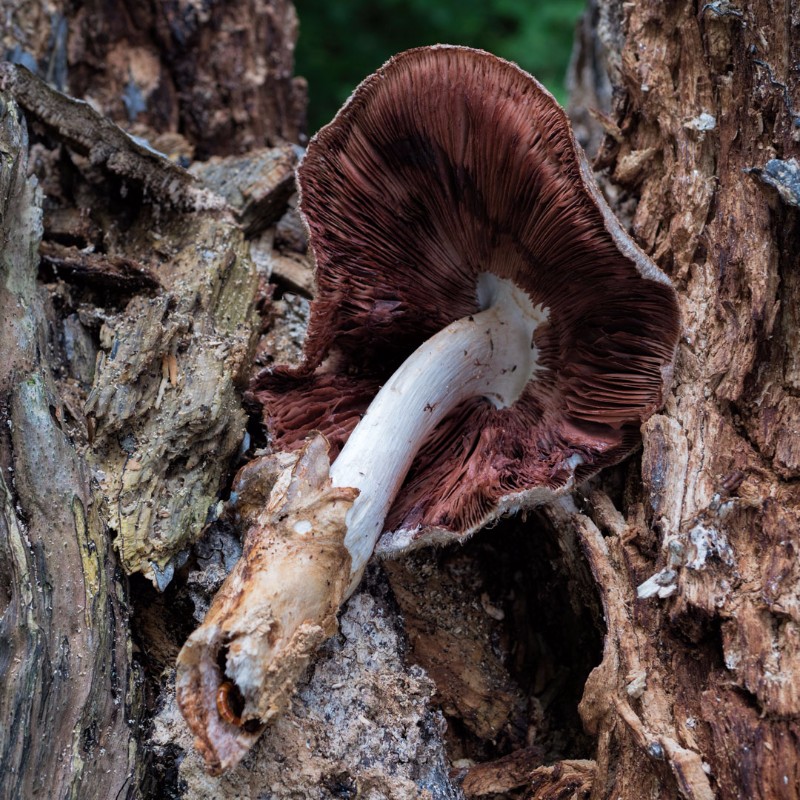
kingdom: Fungi
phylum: Basidiomycota
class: Agaricomycetes
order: Agaricales
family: Pluteaceae
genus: Volvariella
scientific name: Volvariella bombycina
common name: silkehåret posesvamp
